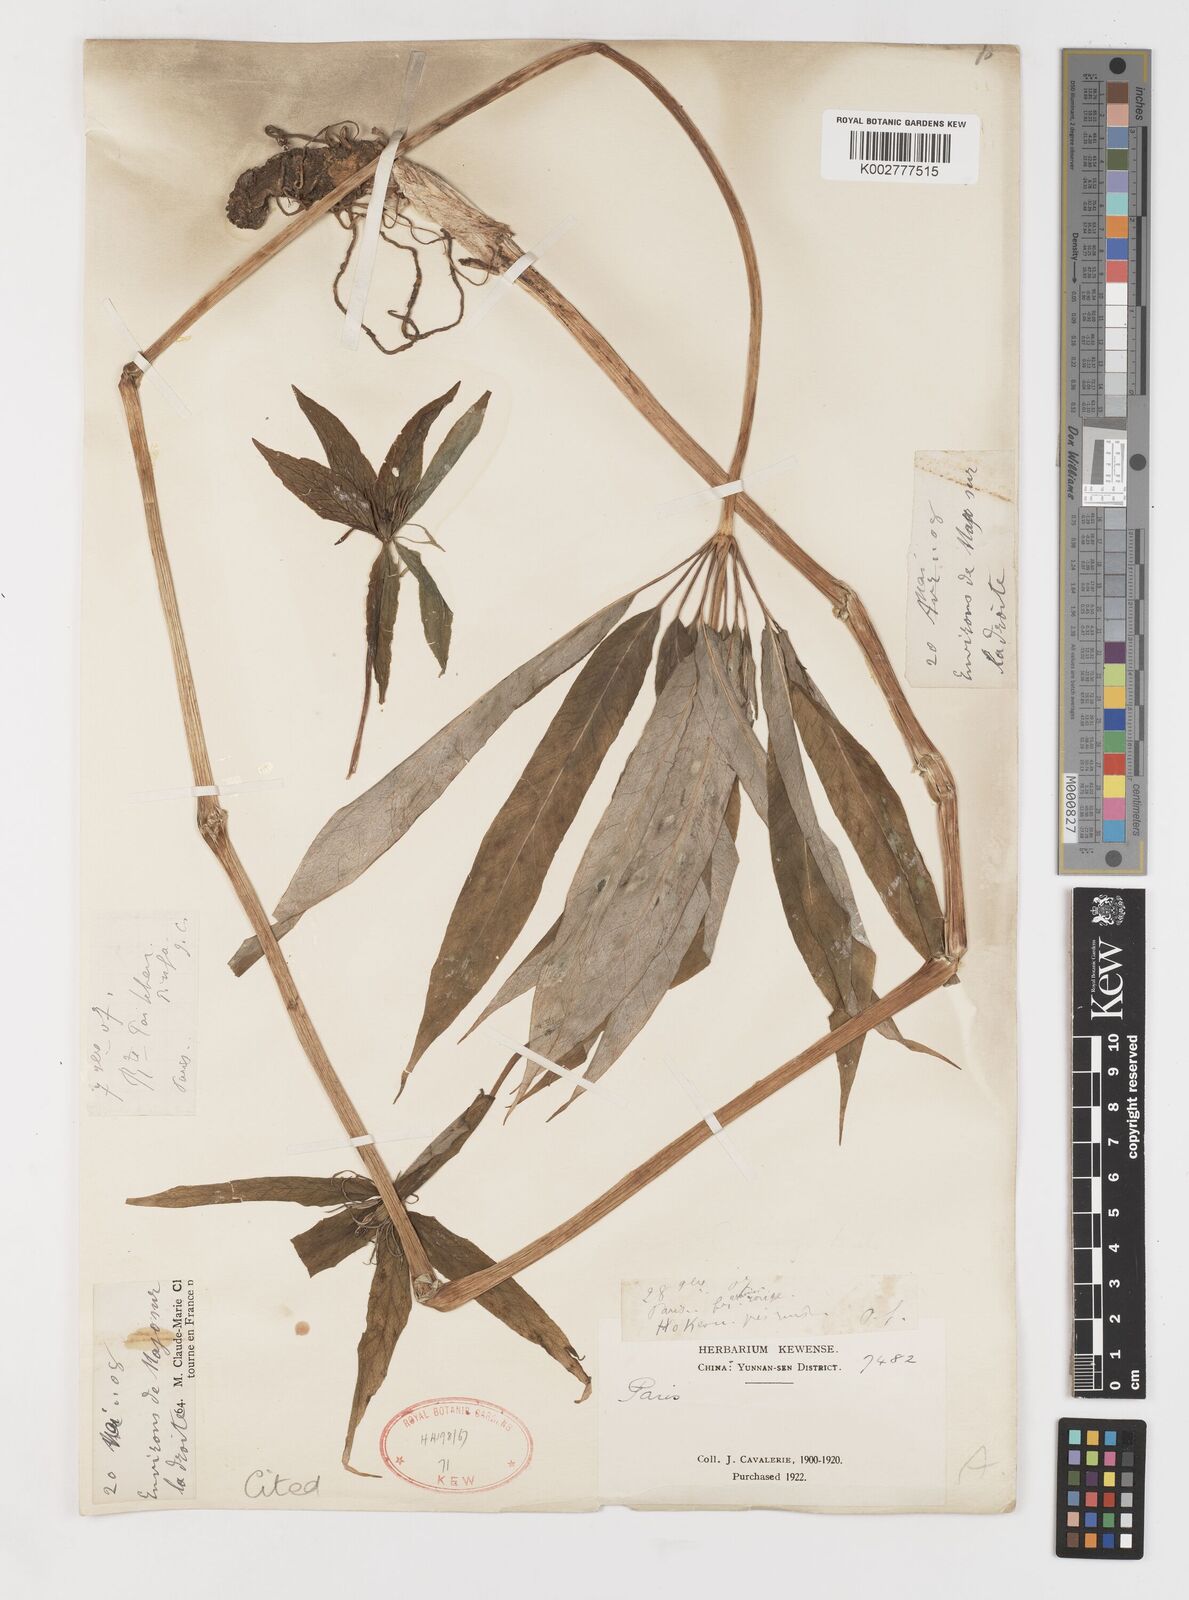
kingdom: Plantae
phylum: Tracheophyta
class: Liliopsida
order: Liliales
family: Melanthiaceae
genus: Paris
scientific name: Paris delavayi
